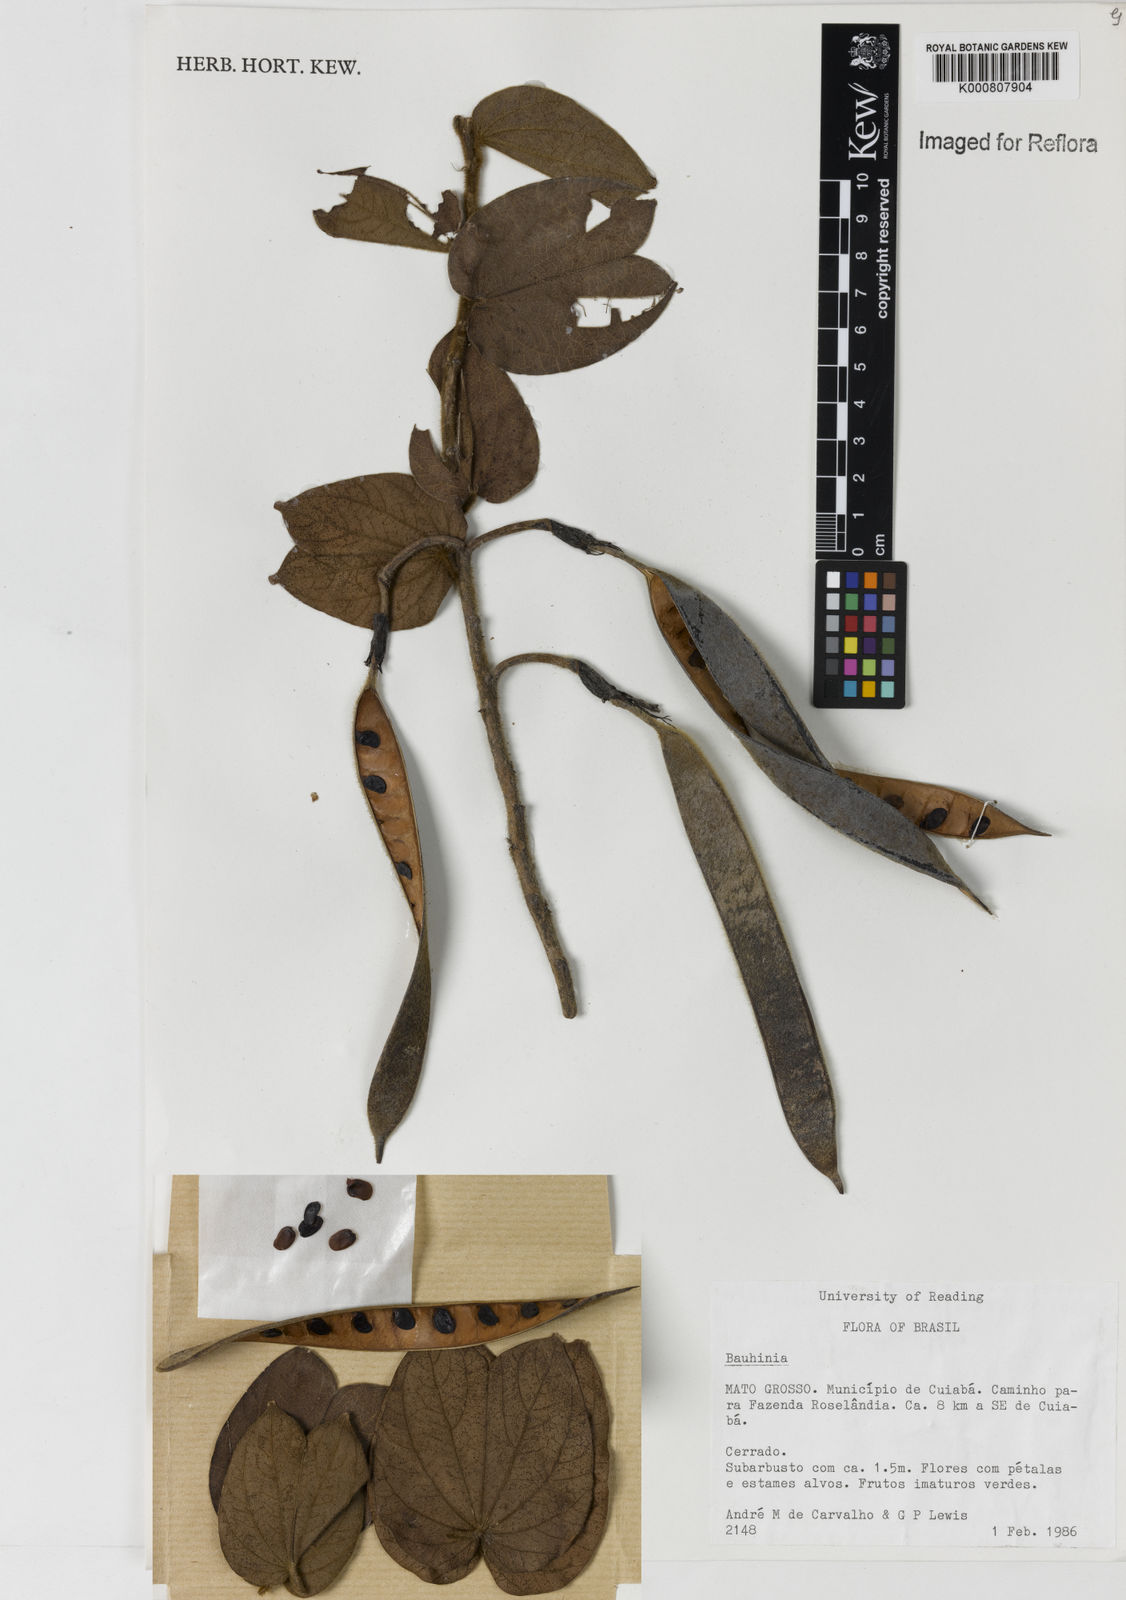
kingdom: Plantae
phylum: Tracheophyta
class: Magnoliopsida
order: Fabales
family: Fabaceae
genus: Bauhinia
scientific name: Bauhinia
